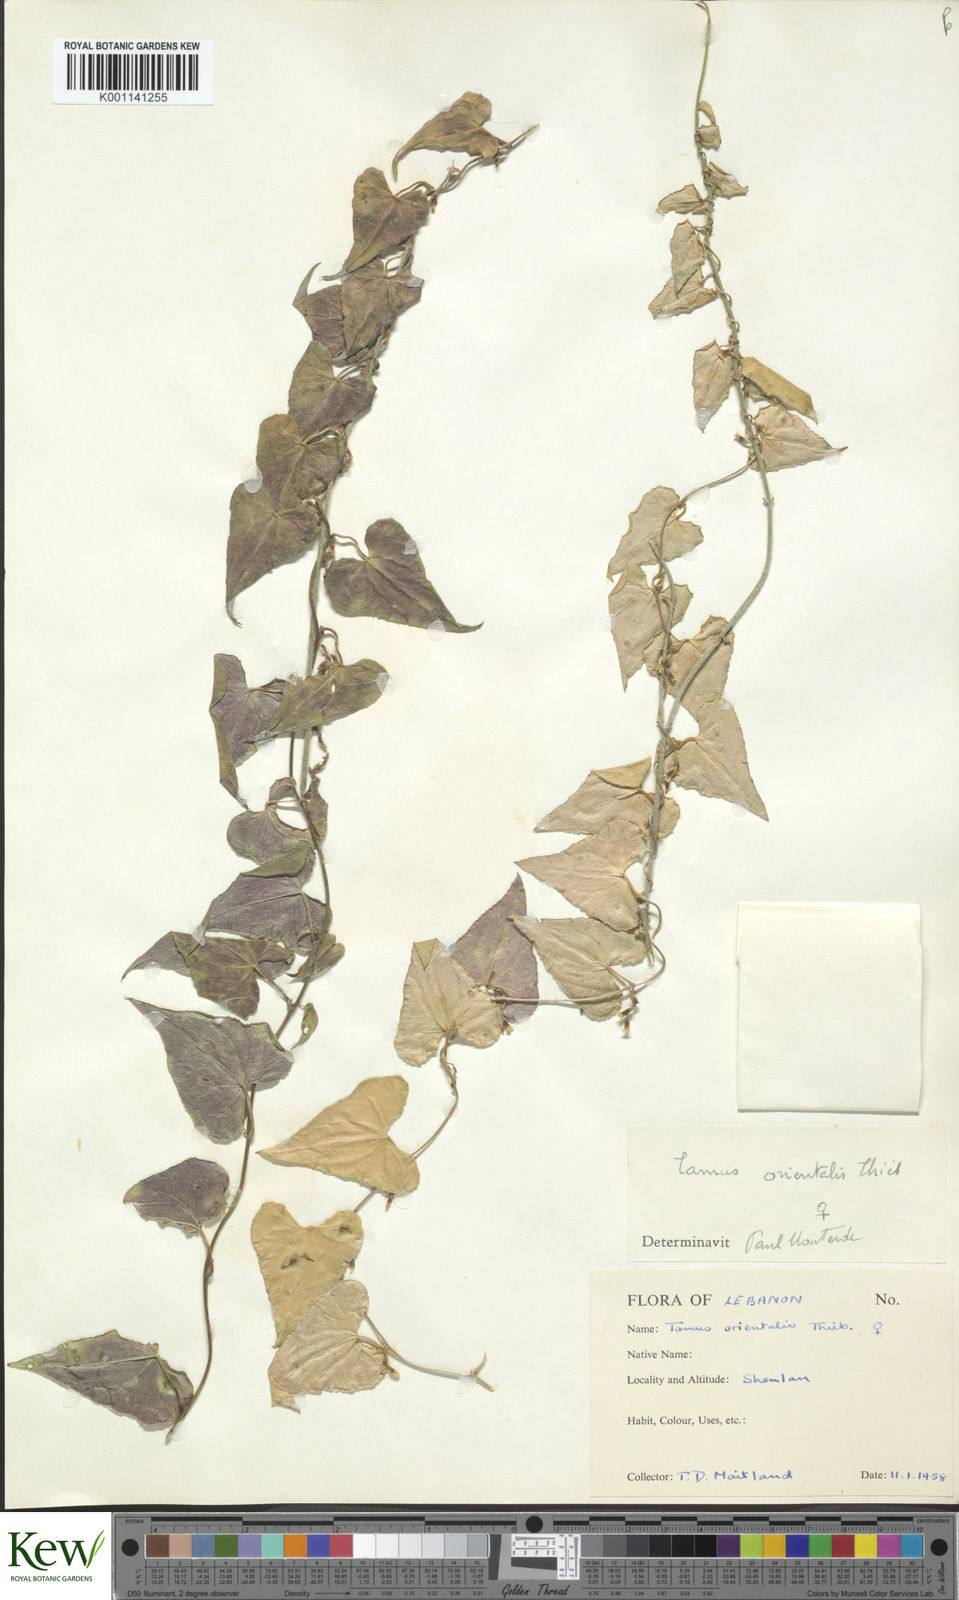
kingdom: Plantae
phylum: Tracheophyta
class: Liliopsida
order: Dioscoreales
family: Dioscoreaceae
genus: Dioscorea
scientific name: Dioscorea
